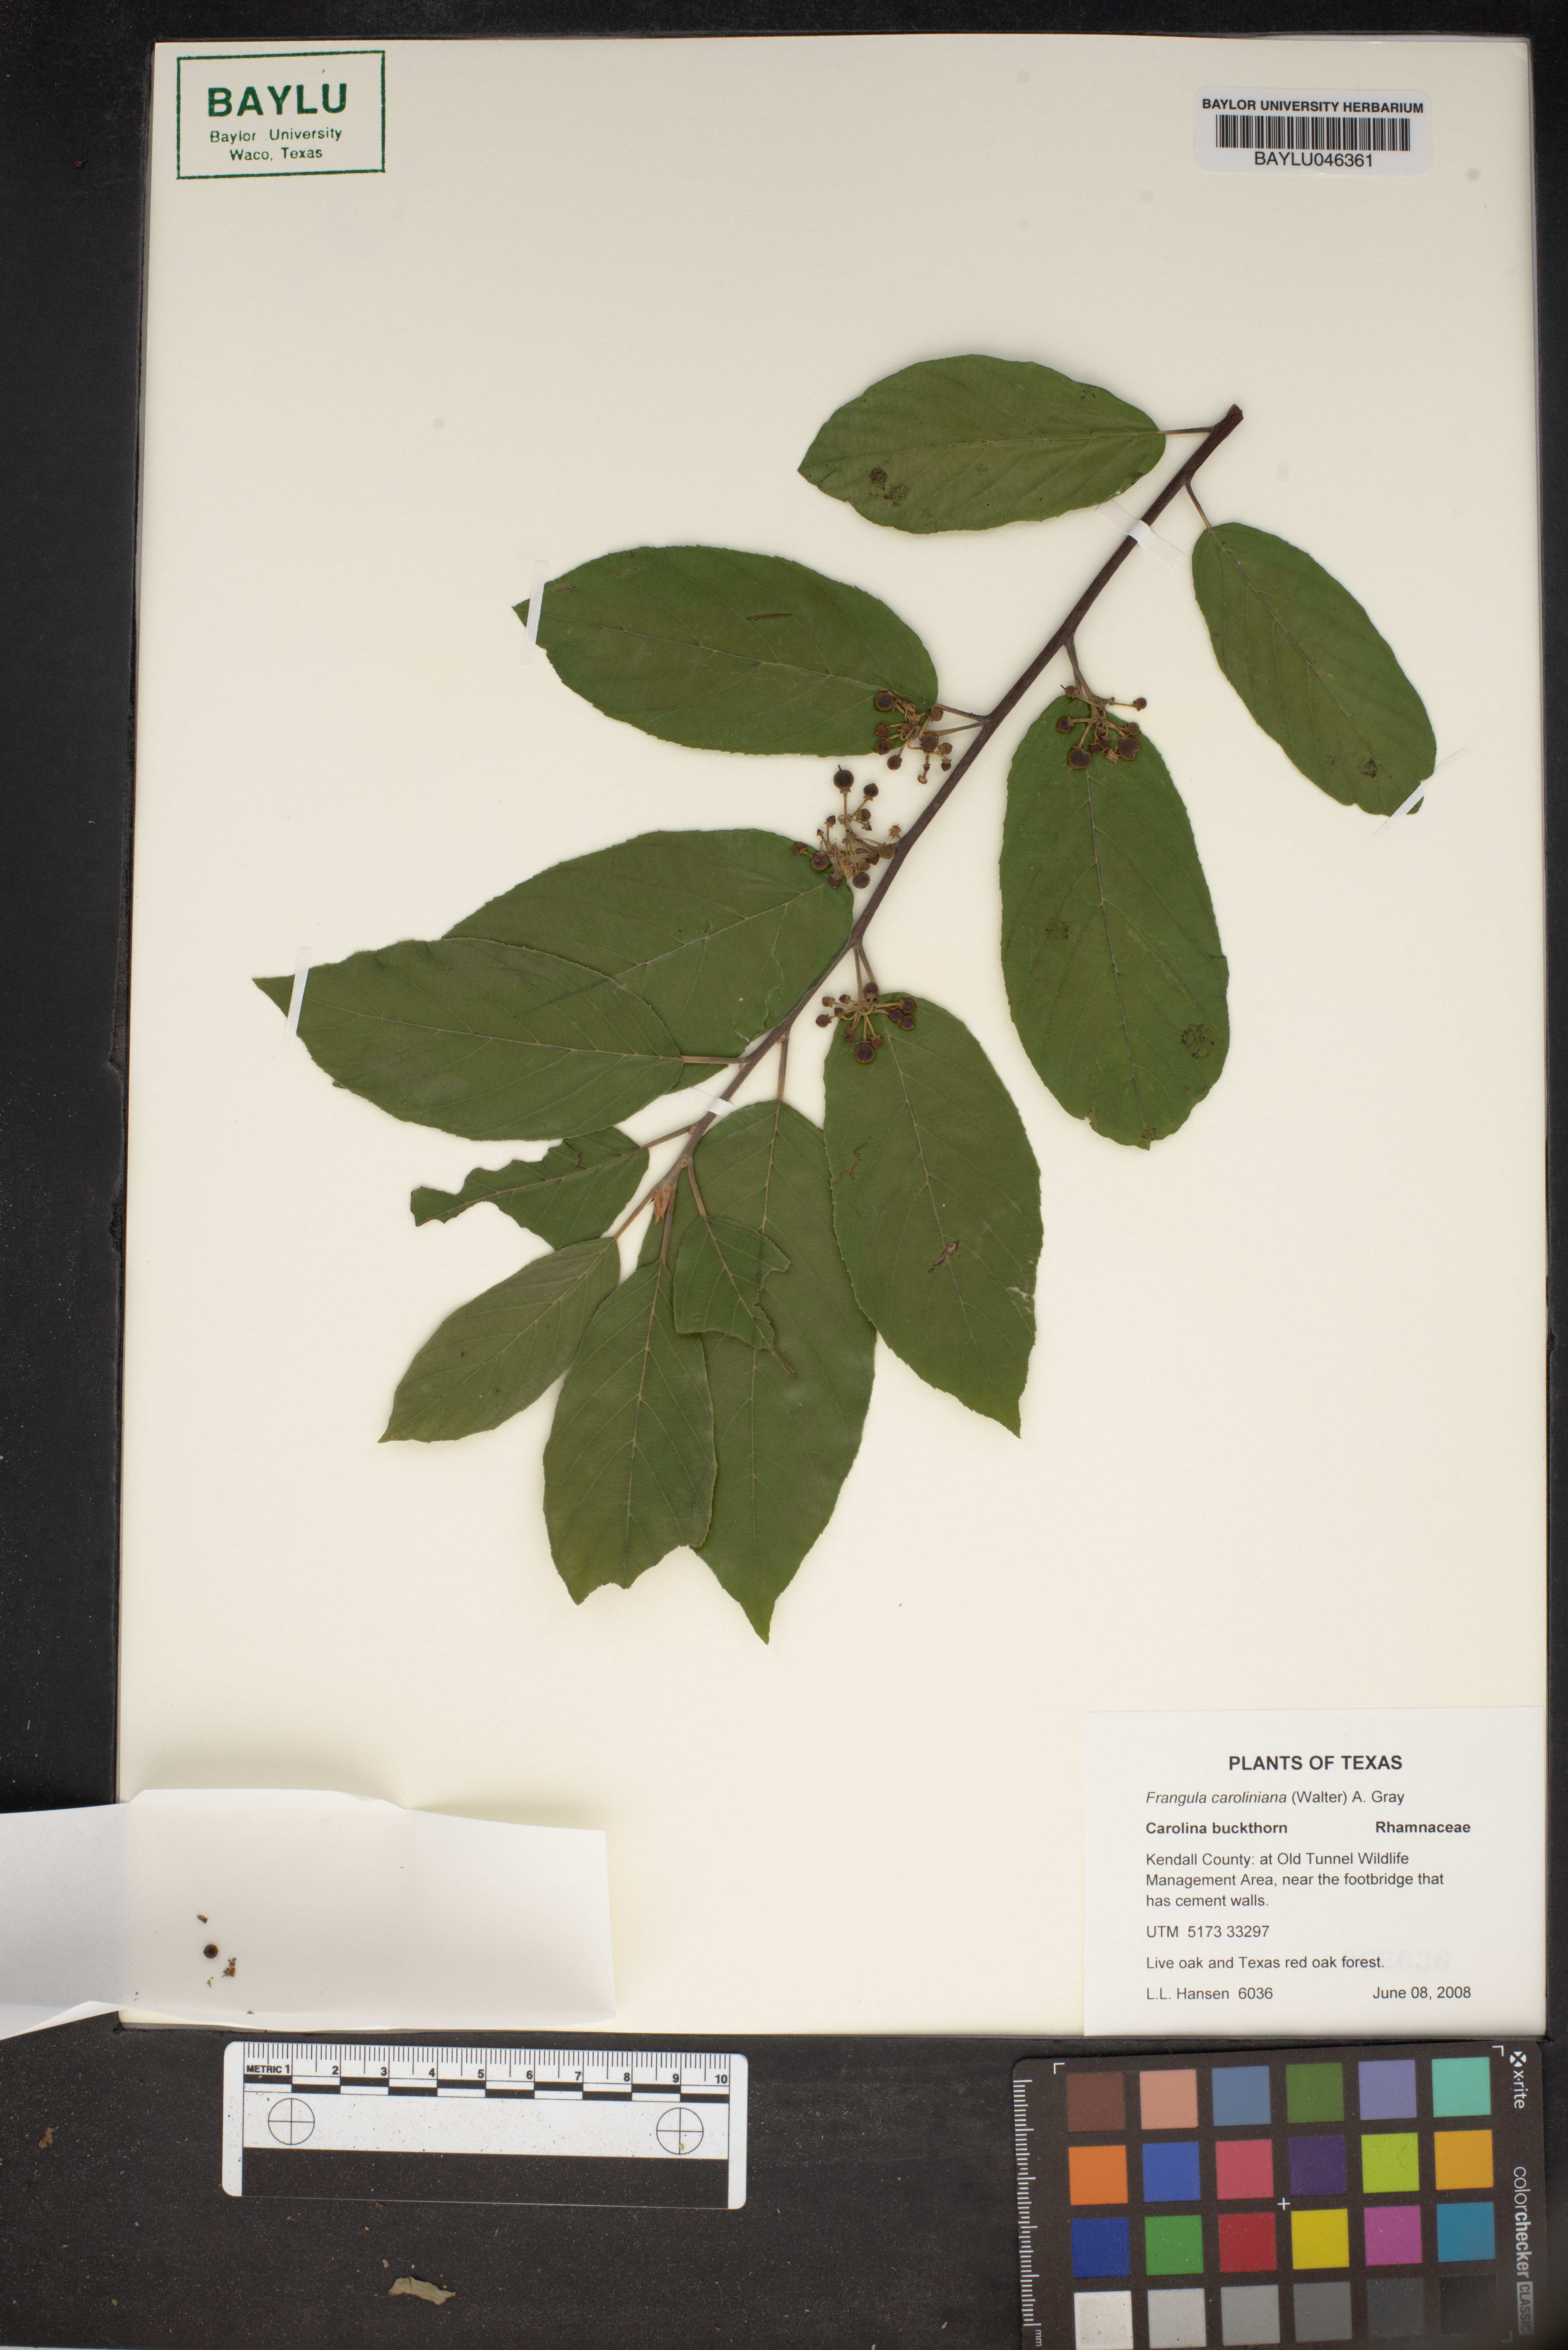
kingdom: Plantae
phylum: Tracheophyta
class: Magnoliopsida
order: Rosales
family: Rhamnaceae
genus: Frangula
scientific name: Frangula caroliniana
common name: Carolina buckthorn
